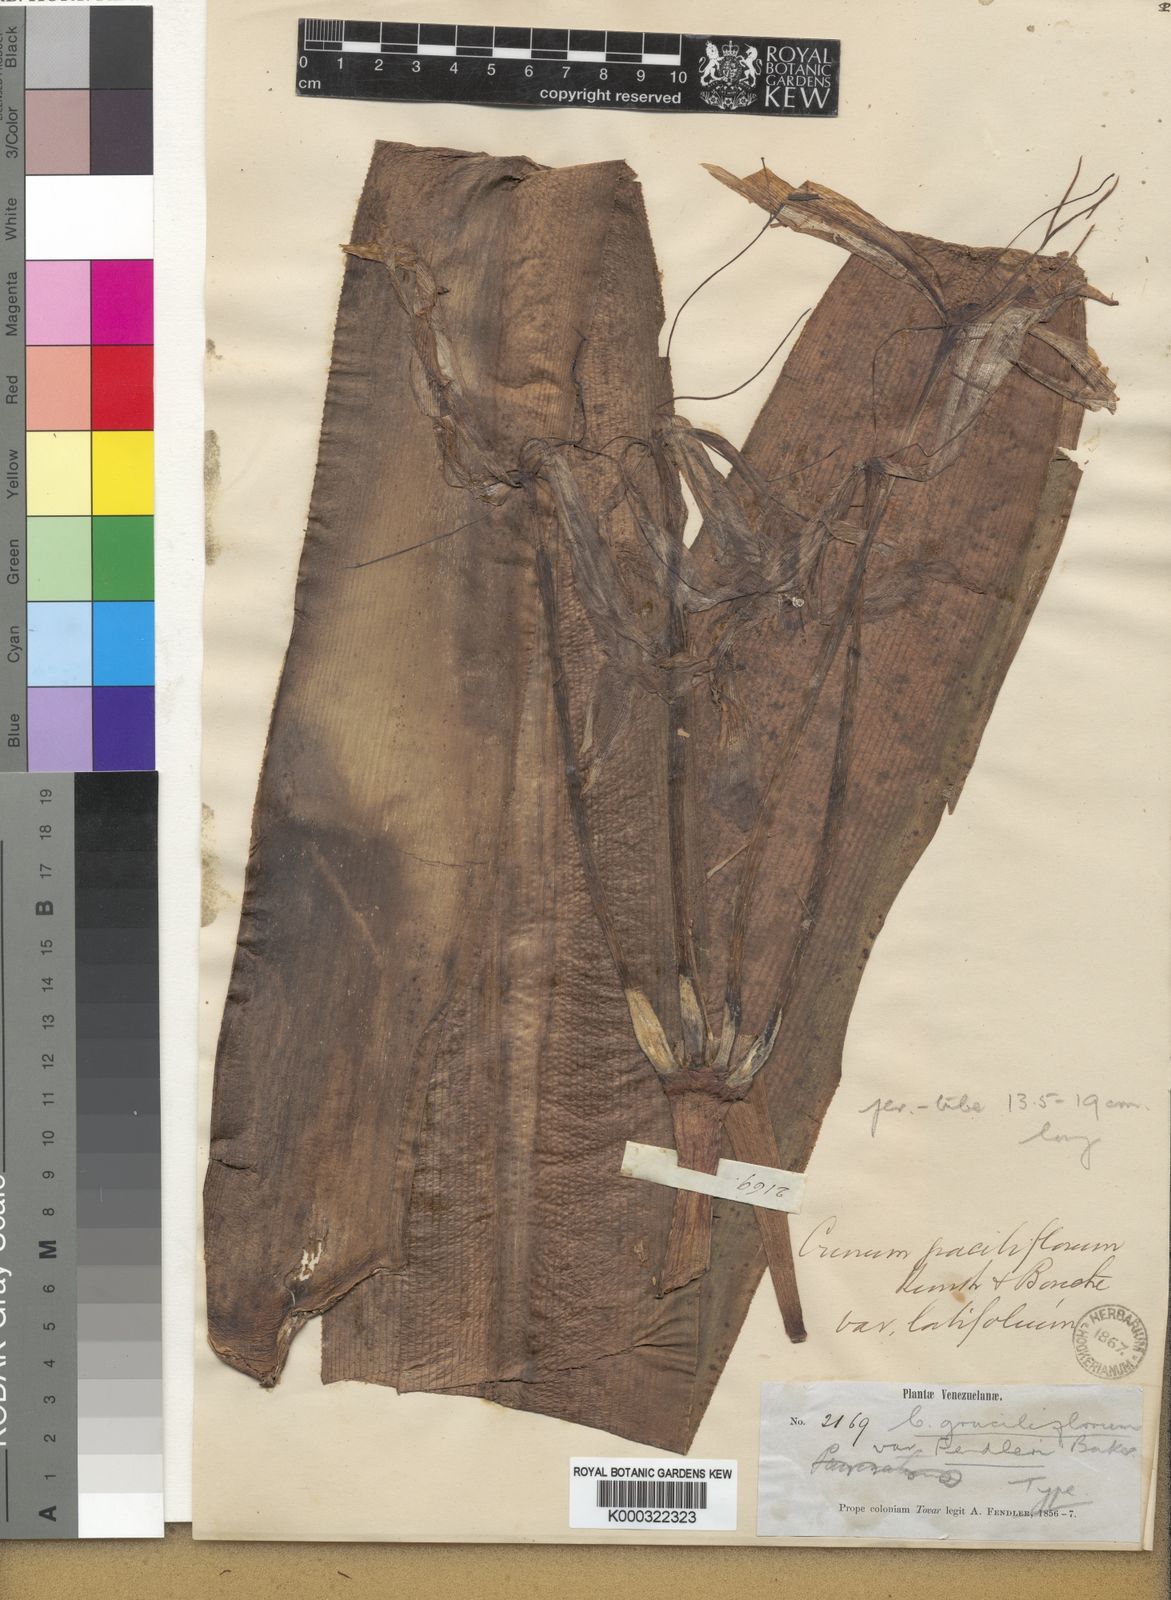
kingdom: Plantae
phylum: Tracheophyta
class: Liliopsida
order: Asparagales
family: Amaryllidaceae
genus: Crinum
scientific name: Crinum graciliflorum
